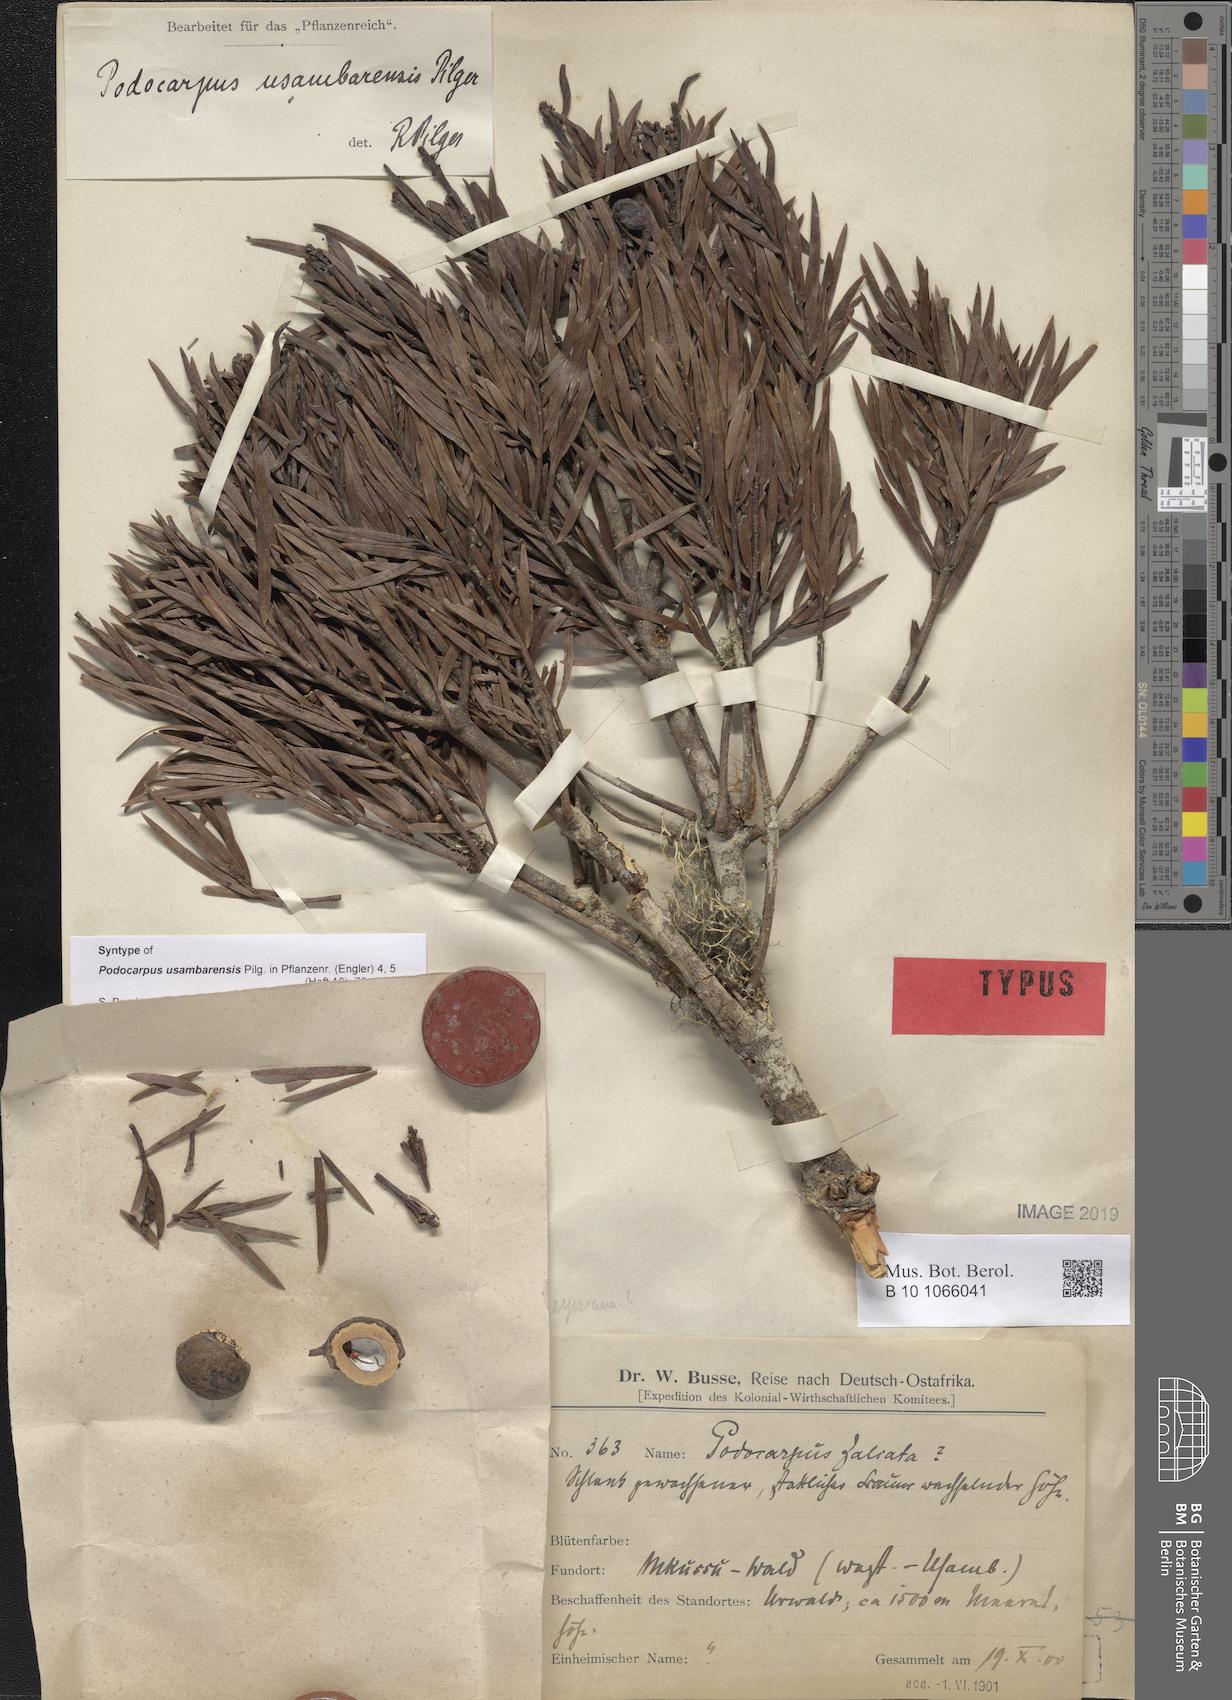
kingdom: Plantae
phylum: Tracheophyta
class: Pinopsida
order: Pinales
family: Podocarpaceae
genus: Afrocarpus
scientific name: Afrocarpus usambarensis
